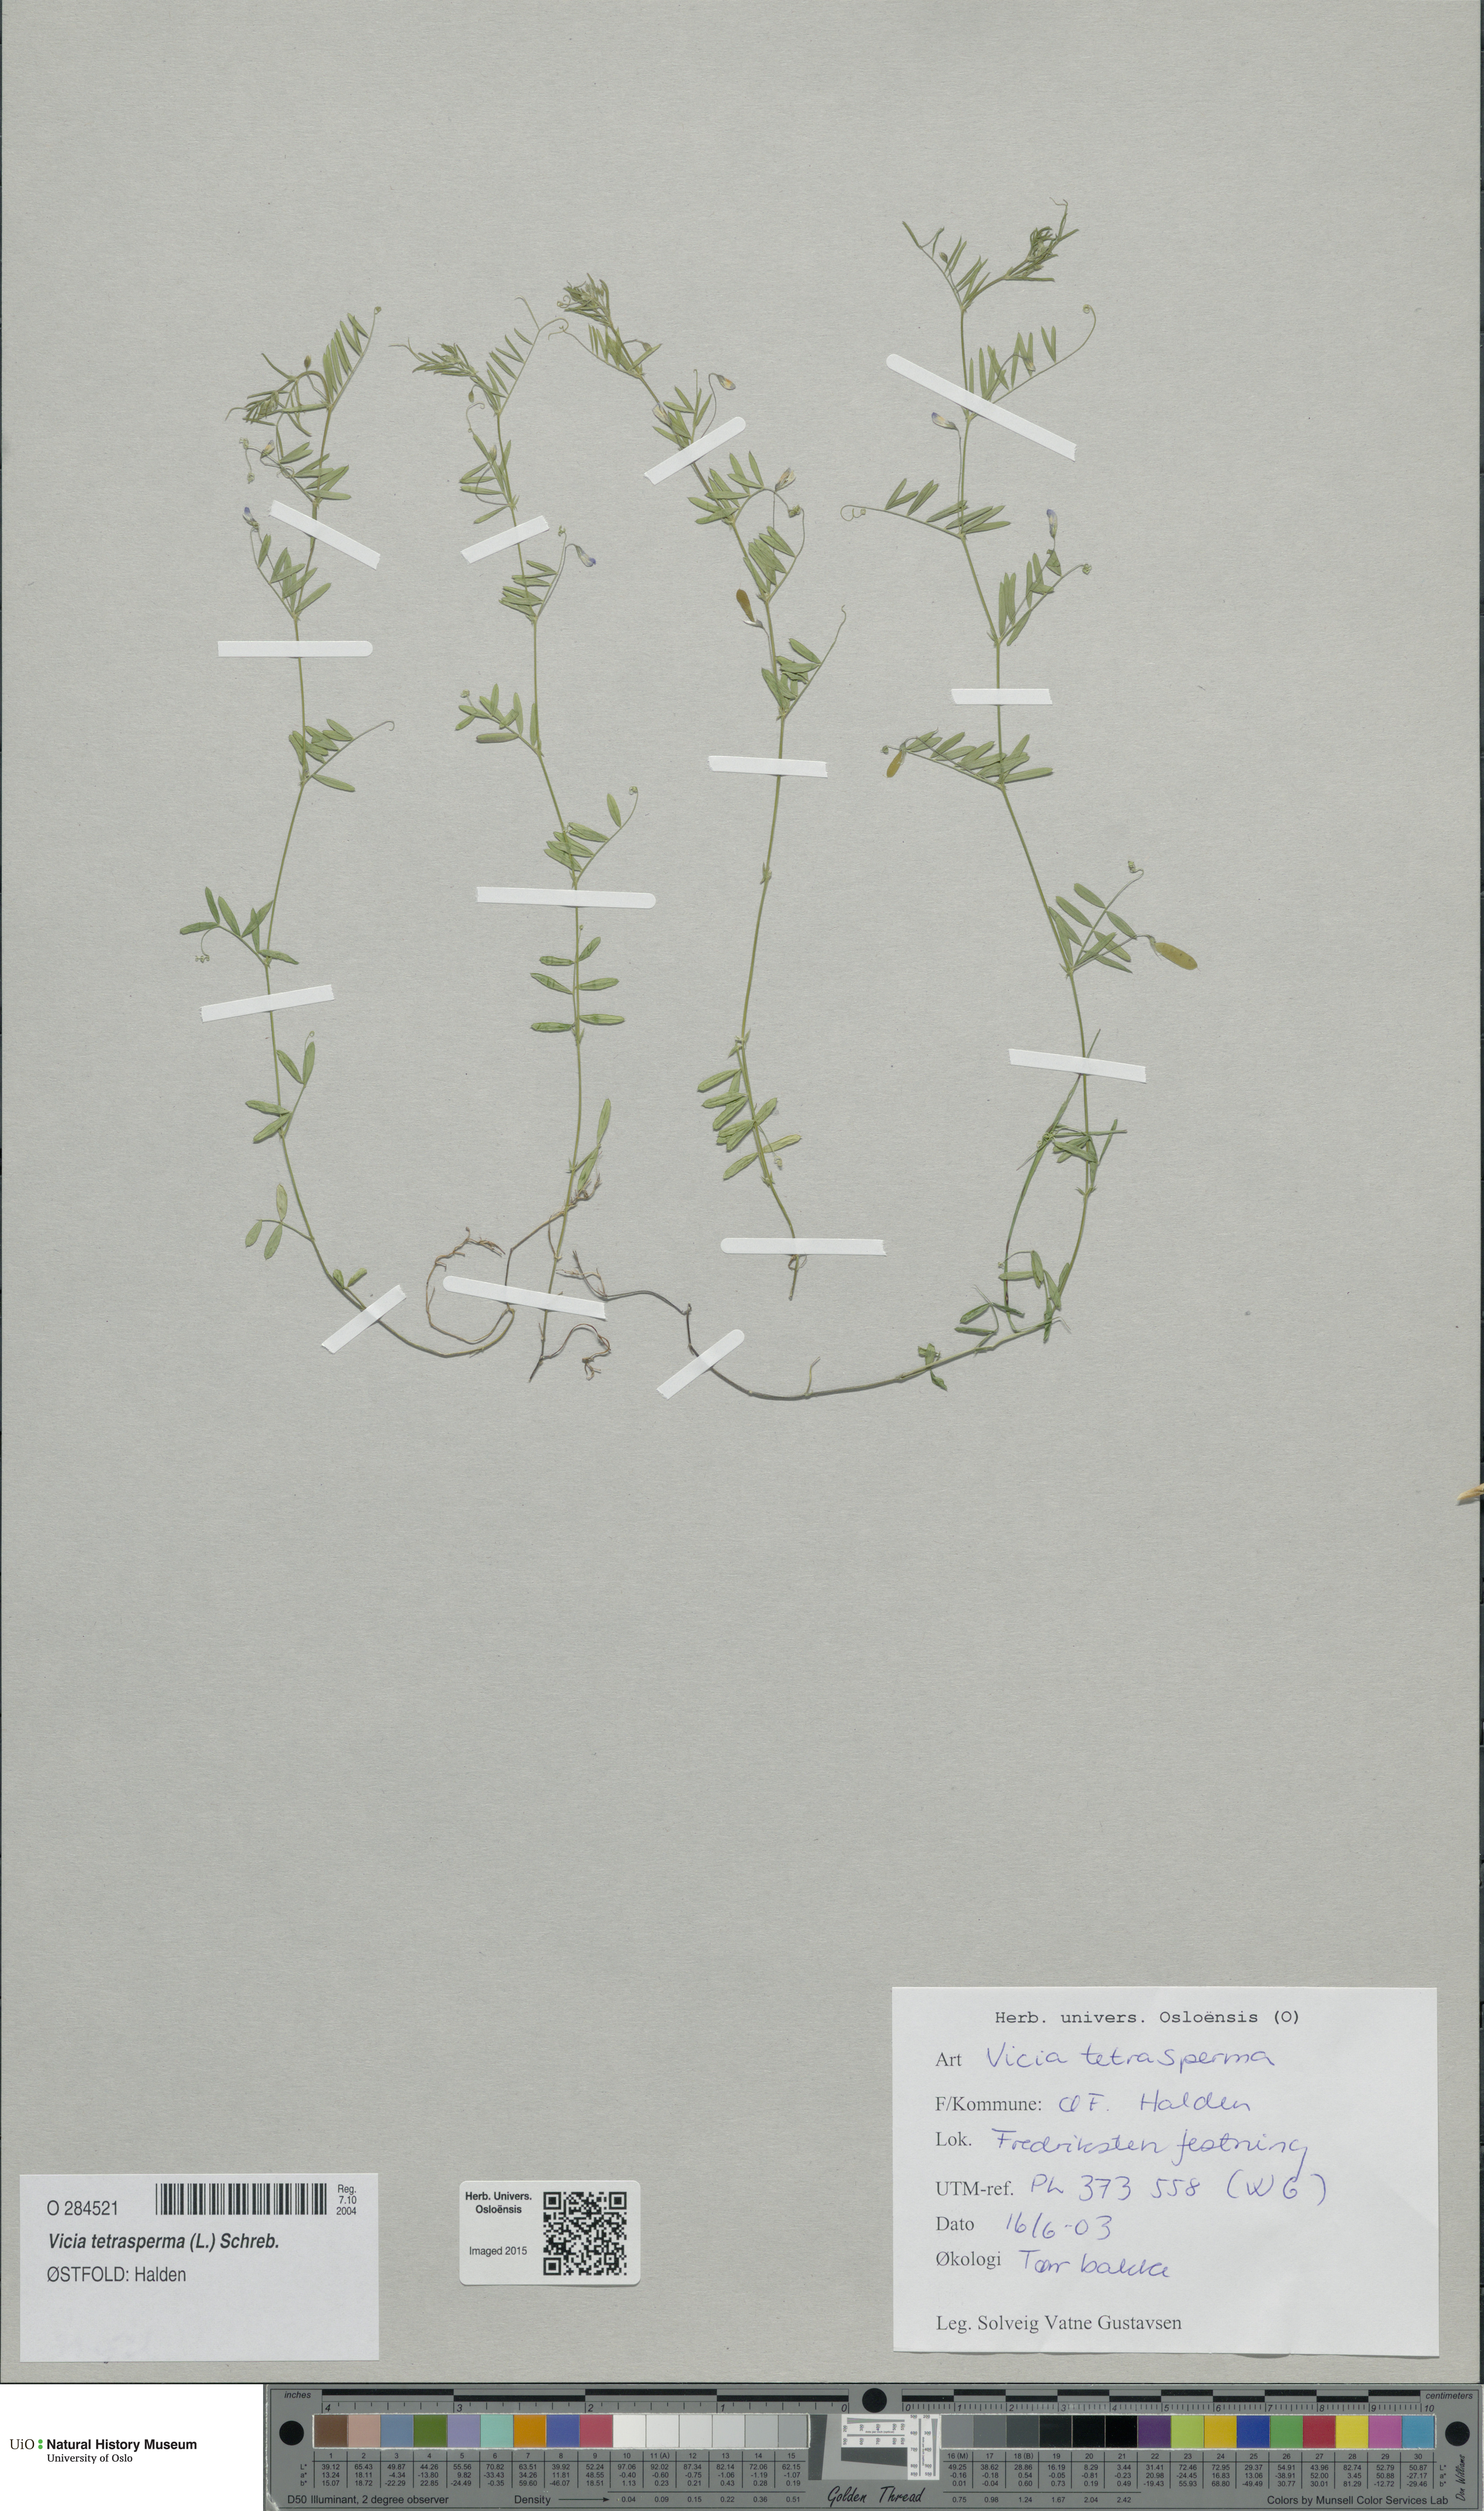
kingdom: Plantae
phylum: Tracheophyta
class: Magnoliopsida
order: Fabales
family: Fabaceae
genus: Vicia
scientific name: Vicia tetrasperma
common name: Smooth tare
